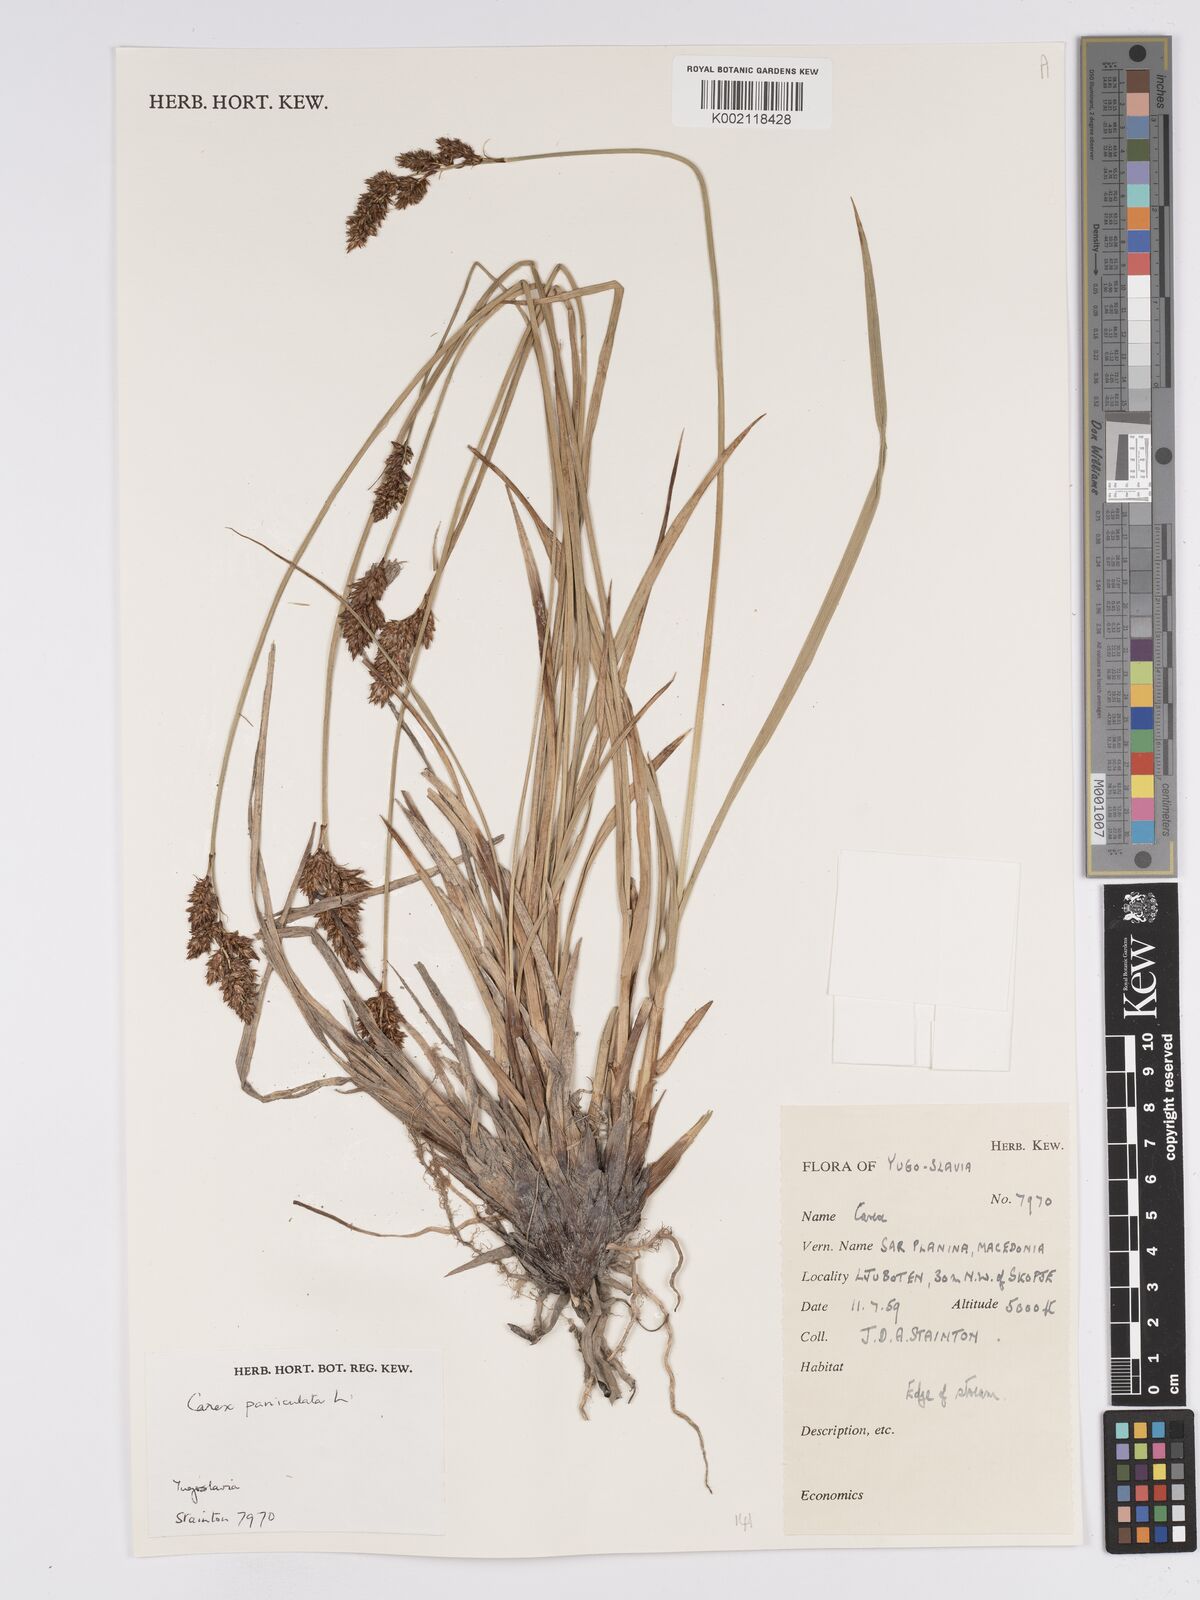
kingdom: Plantae
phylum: Tracheophyta
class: Liliopsida
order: Poales
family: Cyperaceae
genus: Carex
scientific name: Carex paniculata
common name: Greater tussock-sedge
